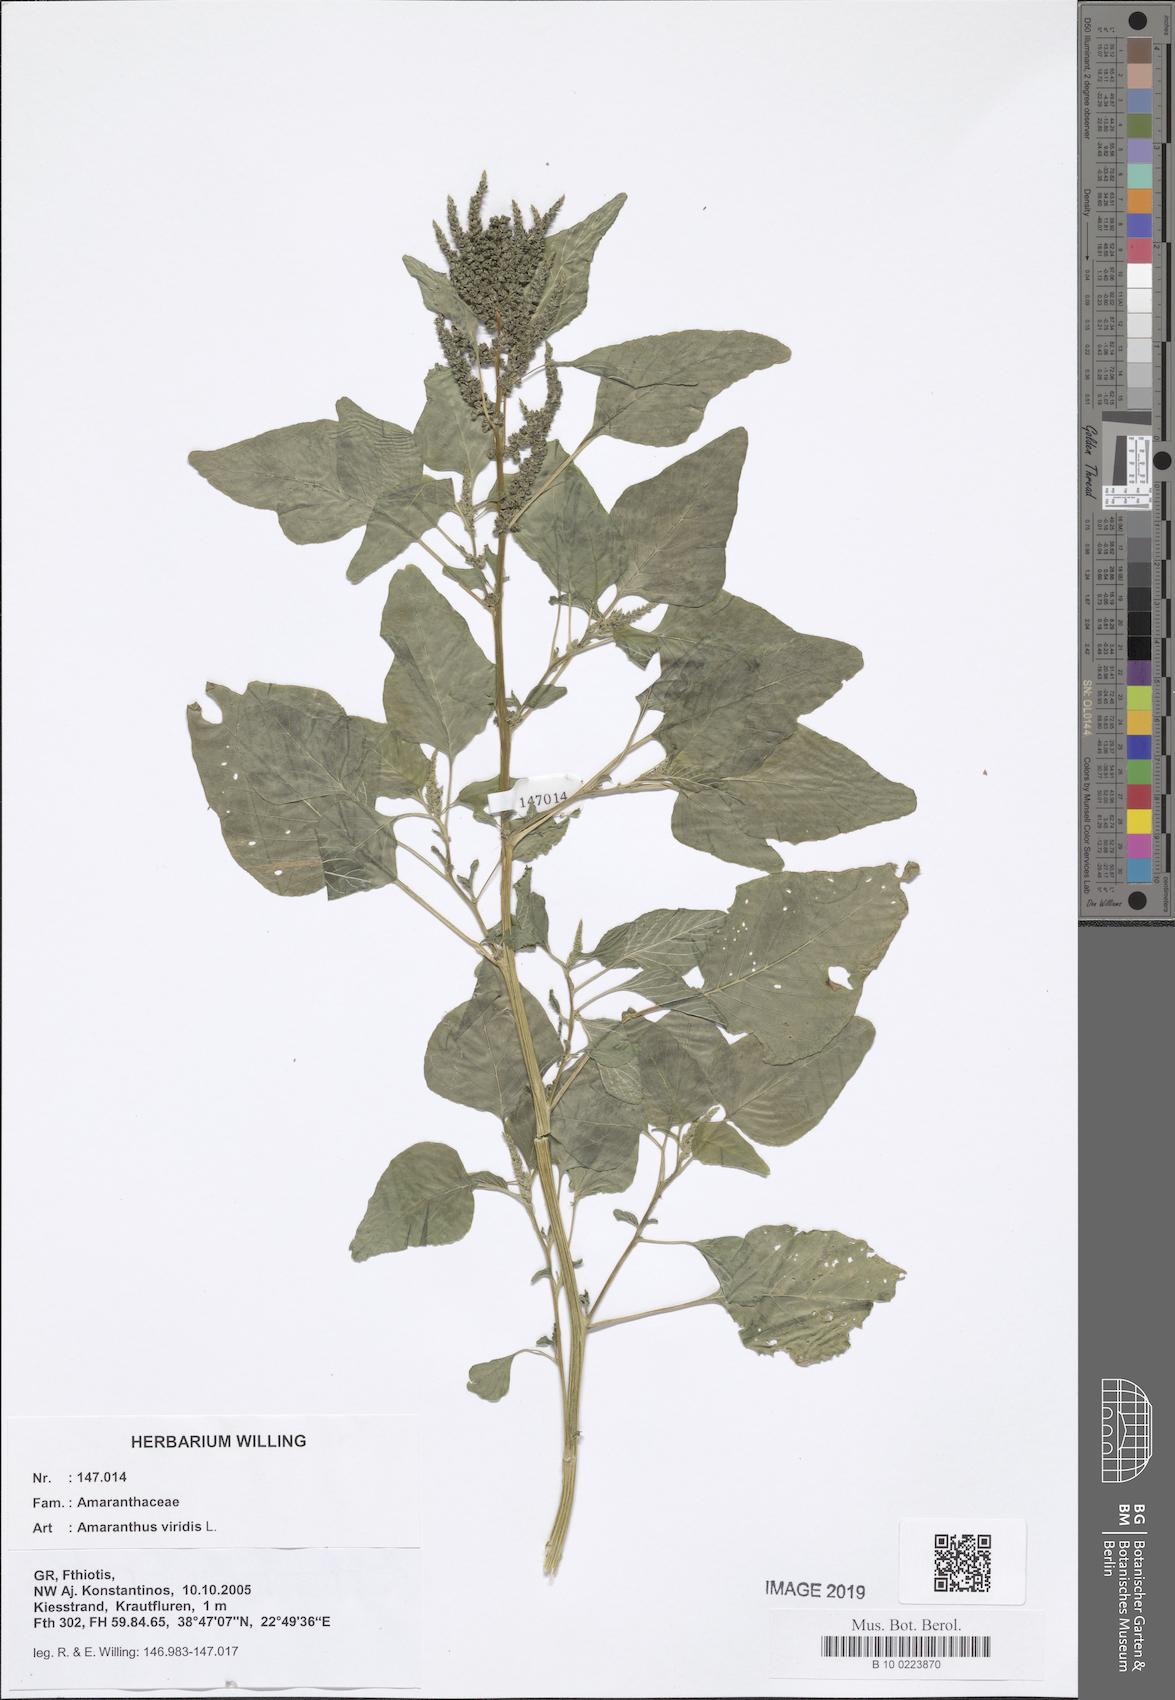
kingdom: Plantae
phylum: Tracheophyta
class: Magnoliopsida
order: Caryophyllales
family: Amaranthaceae
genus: Amaranthus
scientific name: Amaranthus viridis
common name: Slender amaranth
